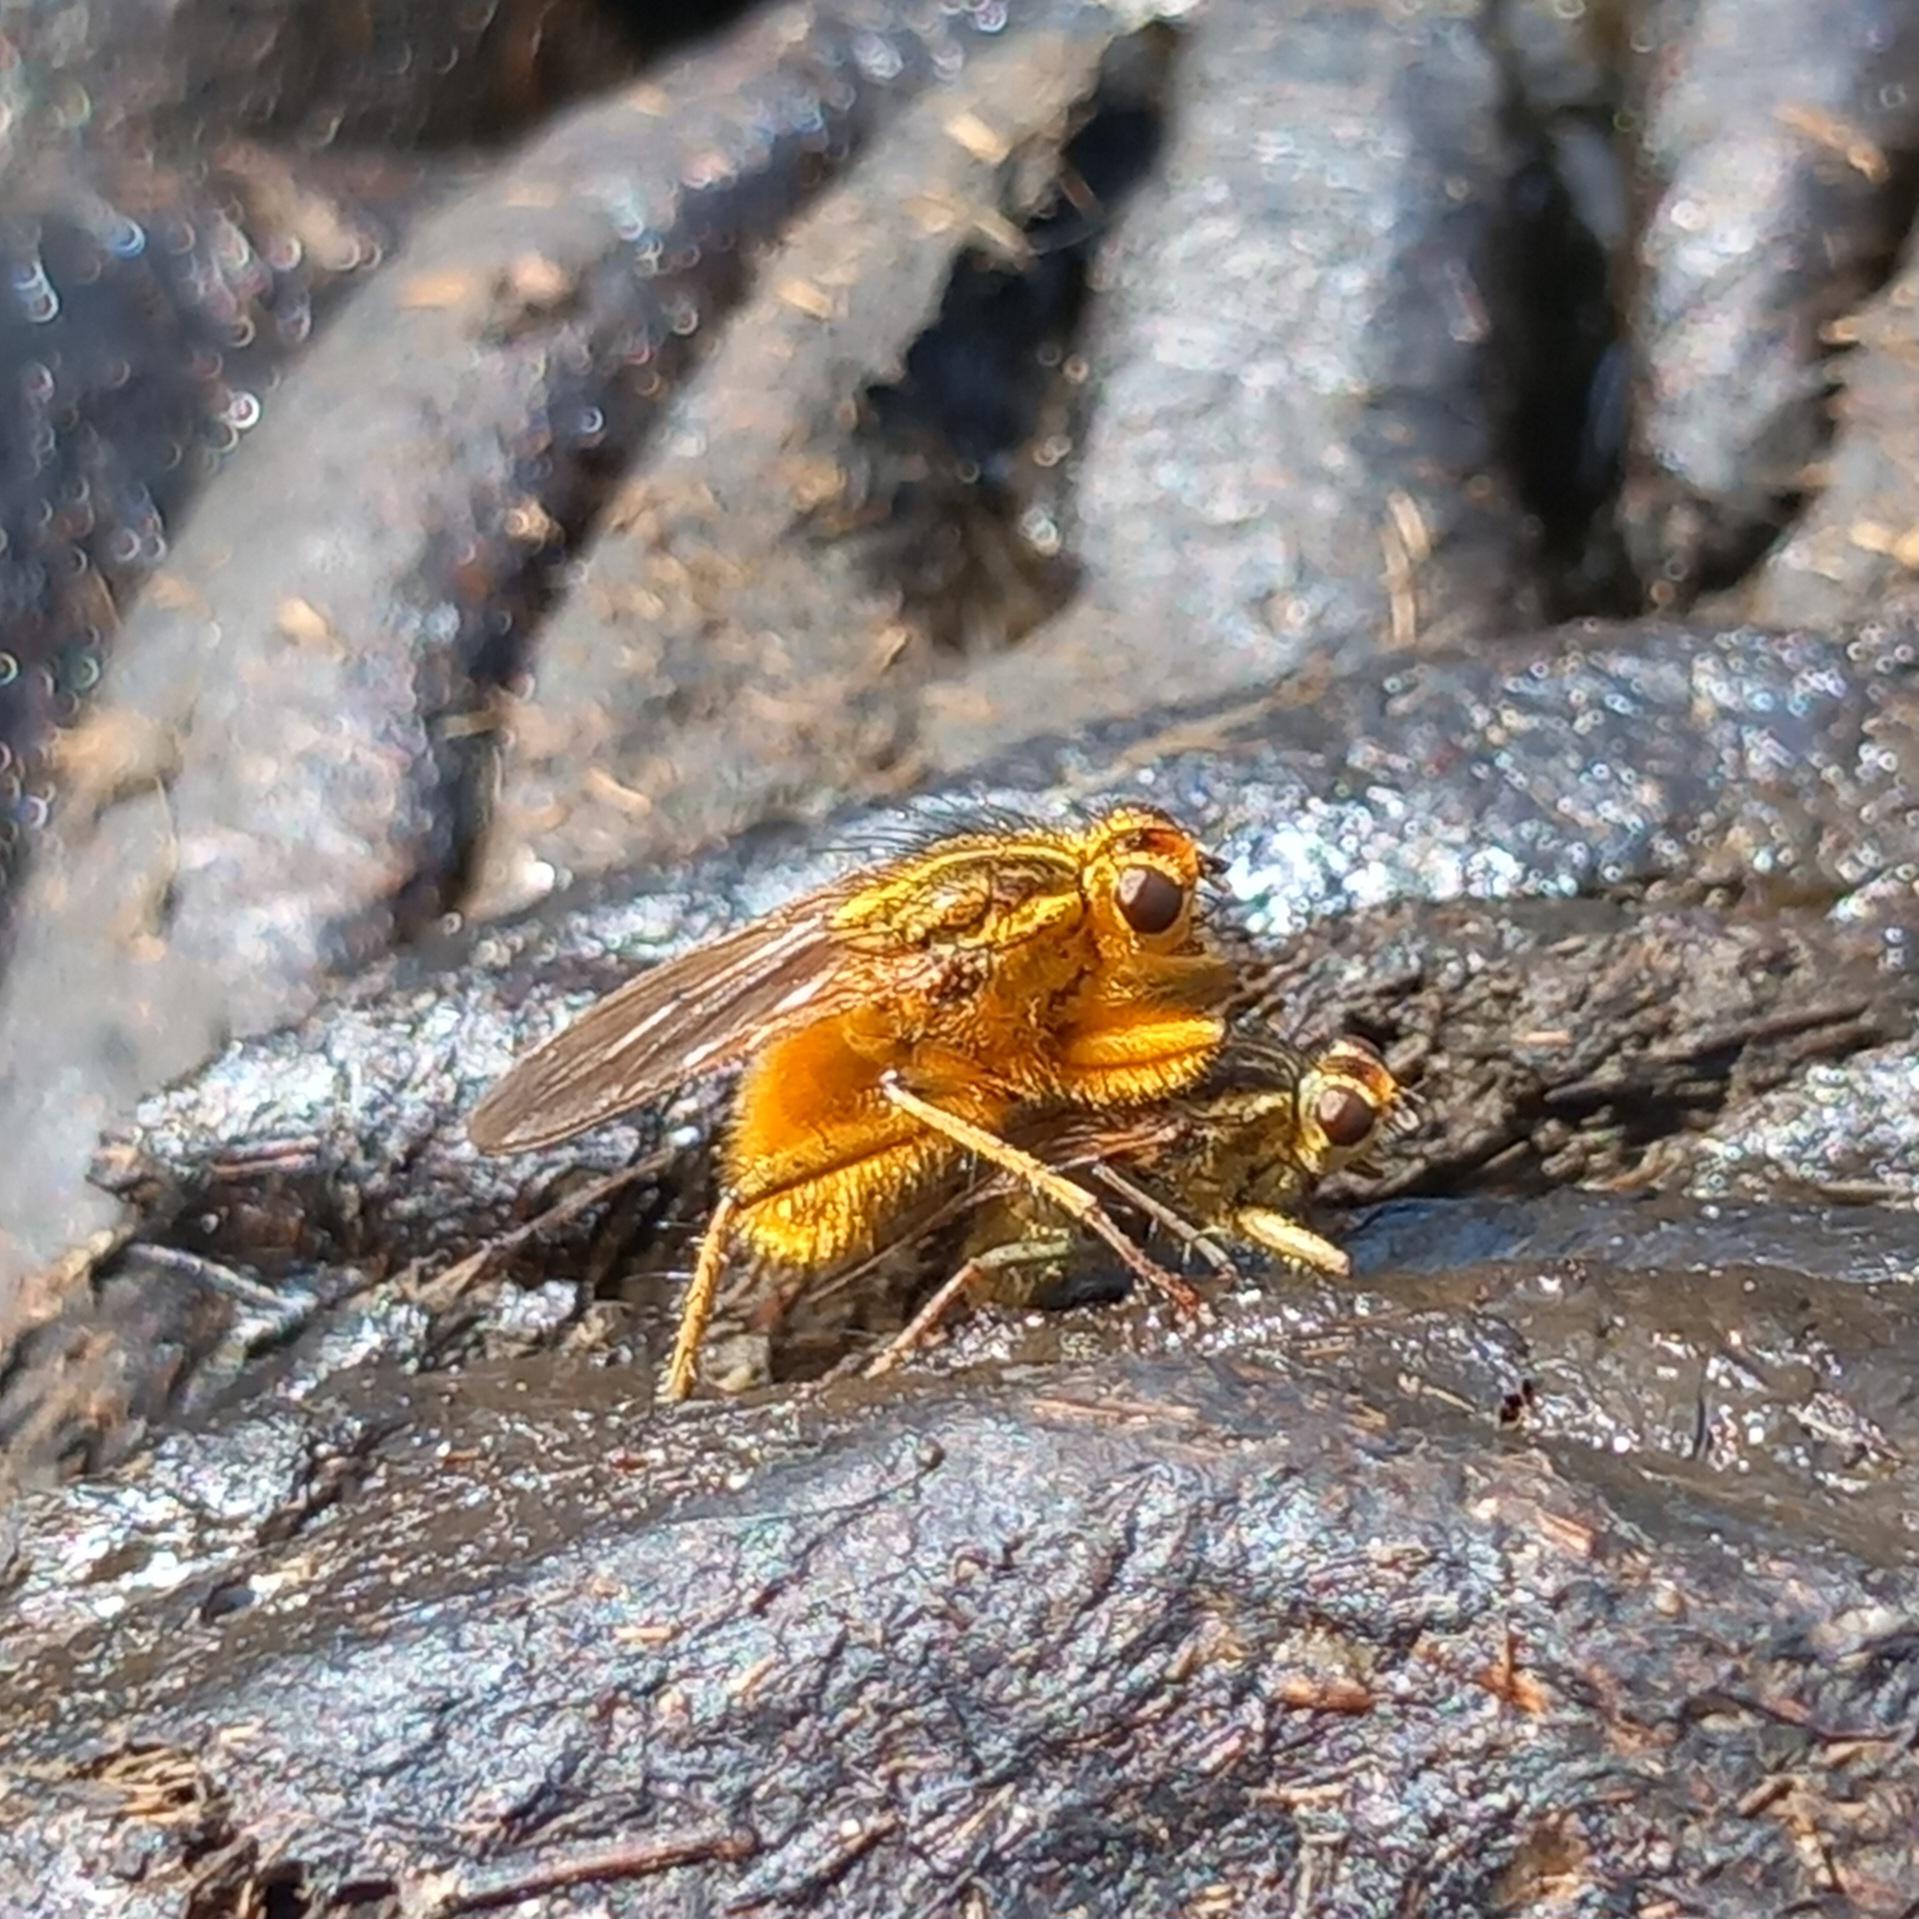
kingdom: Animalia
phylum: Arthropoda
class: Insecta
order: Diptera
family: Scathophagidae
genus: Scathophaga
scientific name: Scathophaga stercoraria
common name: Almindelig gødningsflue
